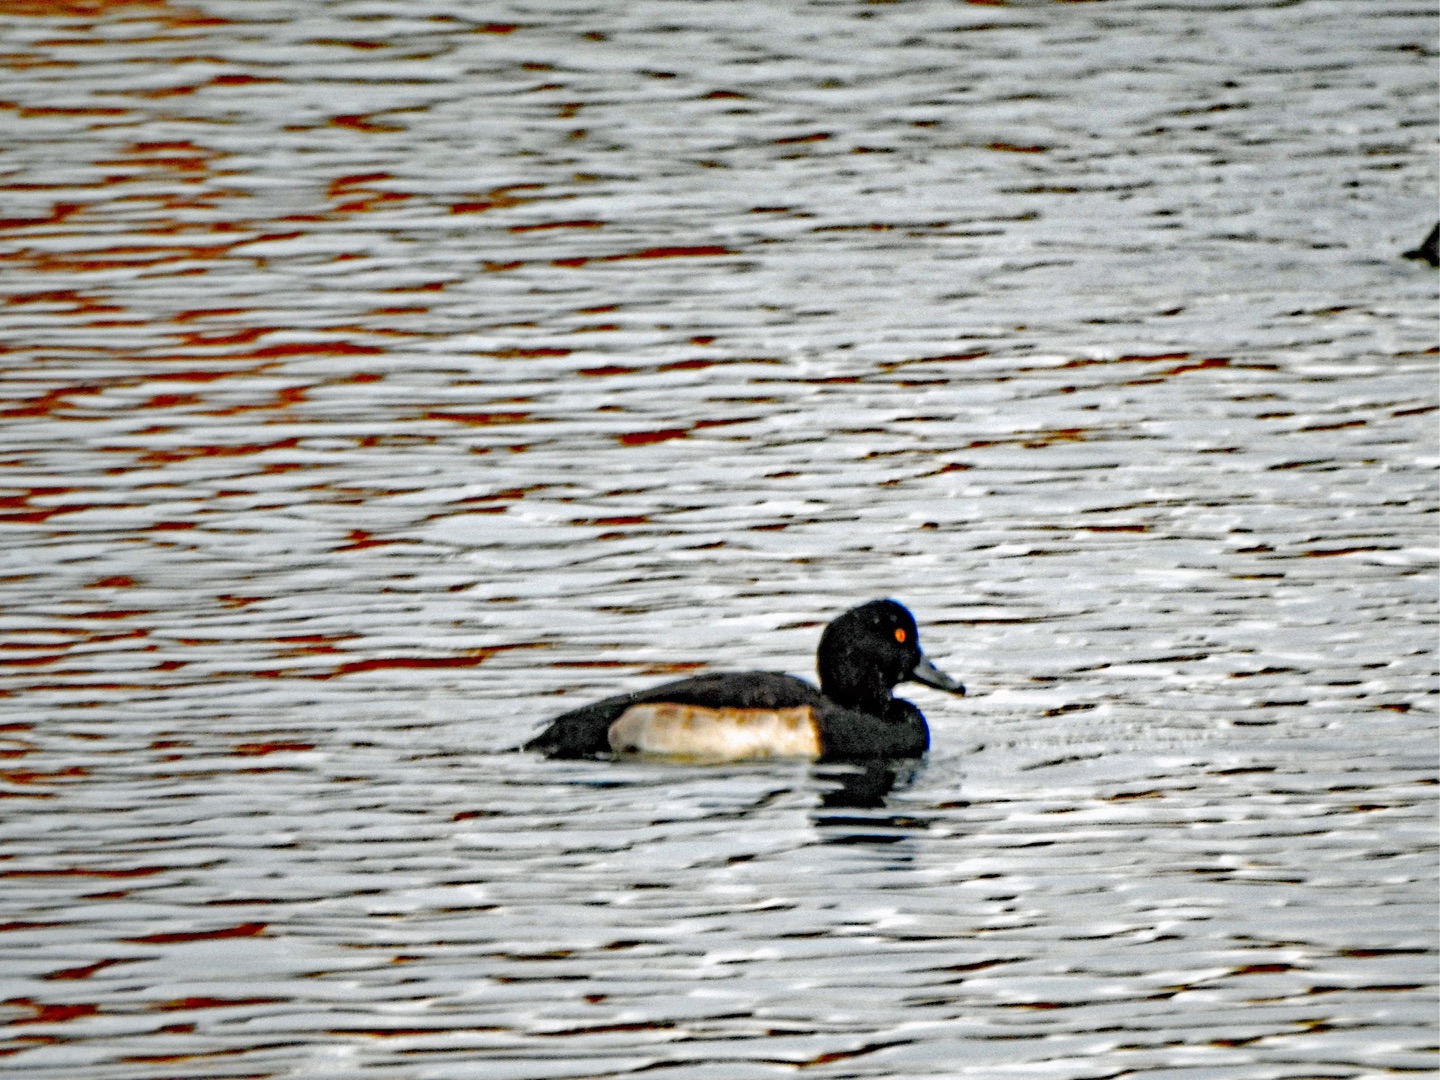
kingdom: Animalia
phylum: Chordata
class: Aves
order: Anseriformes
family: Anatidae
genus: Aythya
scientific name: Aythya fuligula
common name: Troldand
